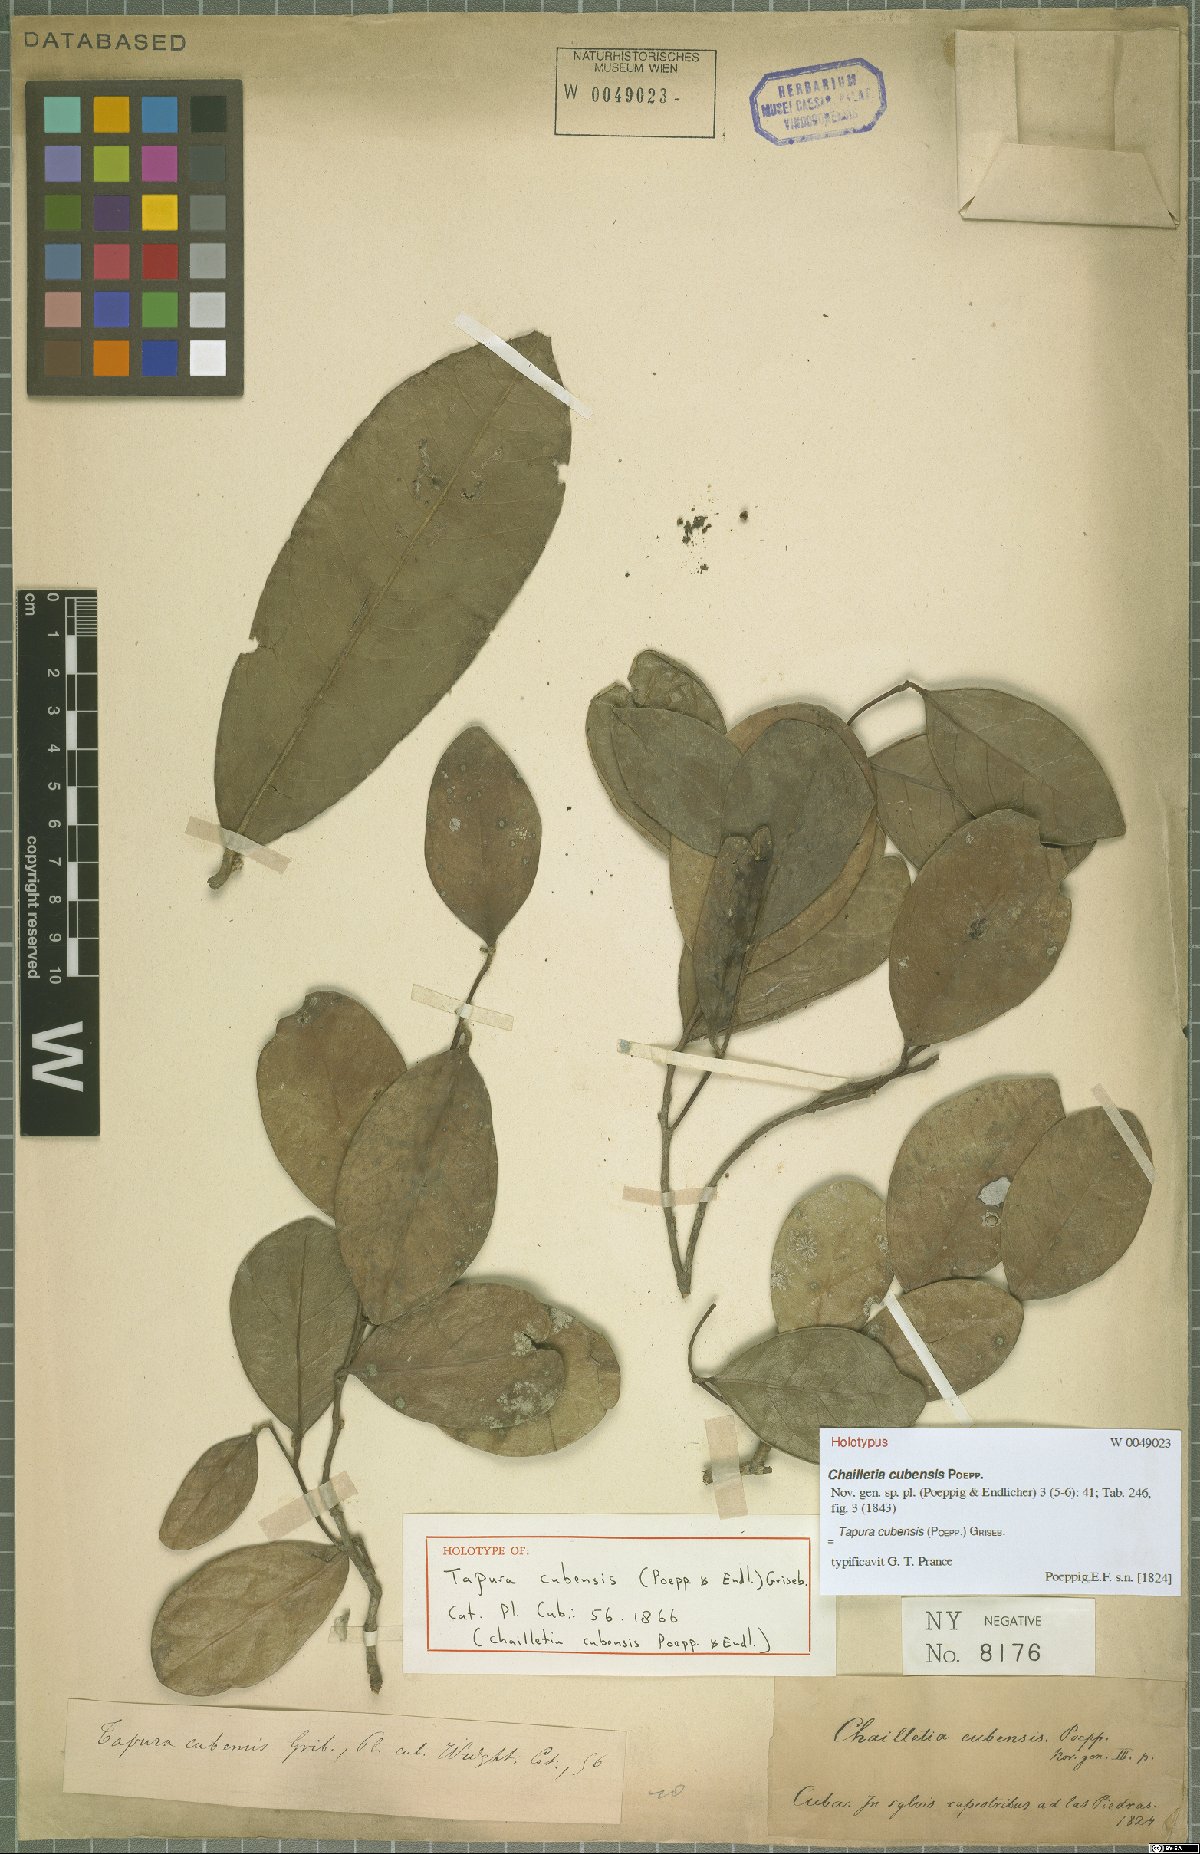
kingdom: Plantae
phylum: Tracheophyta
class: Magnoliopsida
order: Malpighiales
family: Dichapetalaceae
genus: Tapura
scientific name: Tapura cubensis
